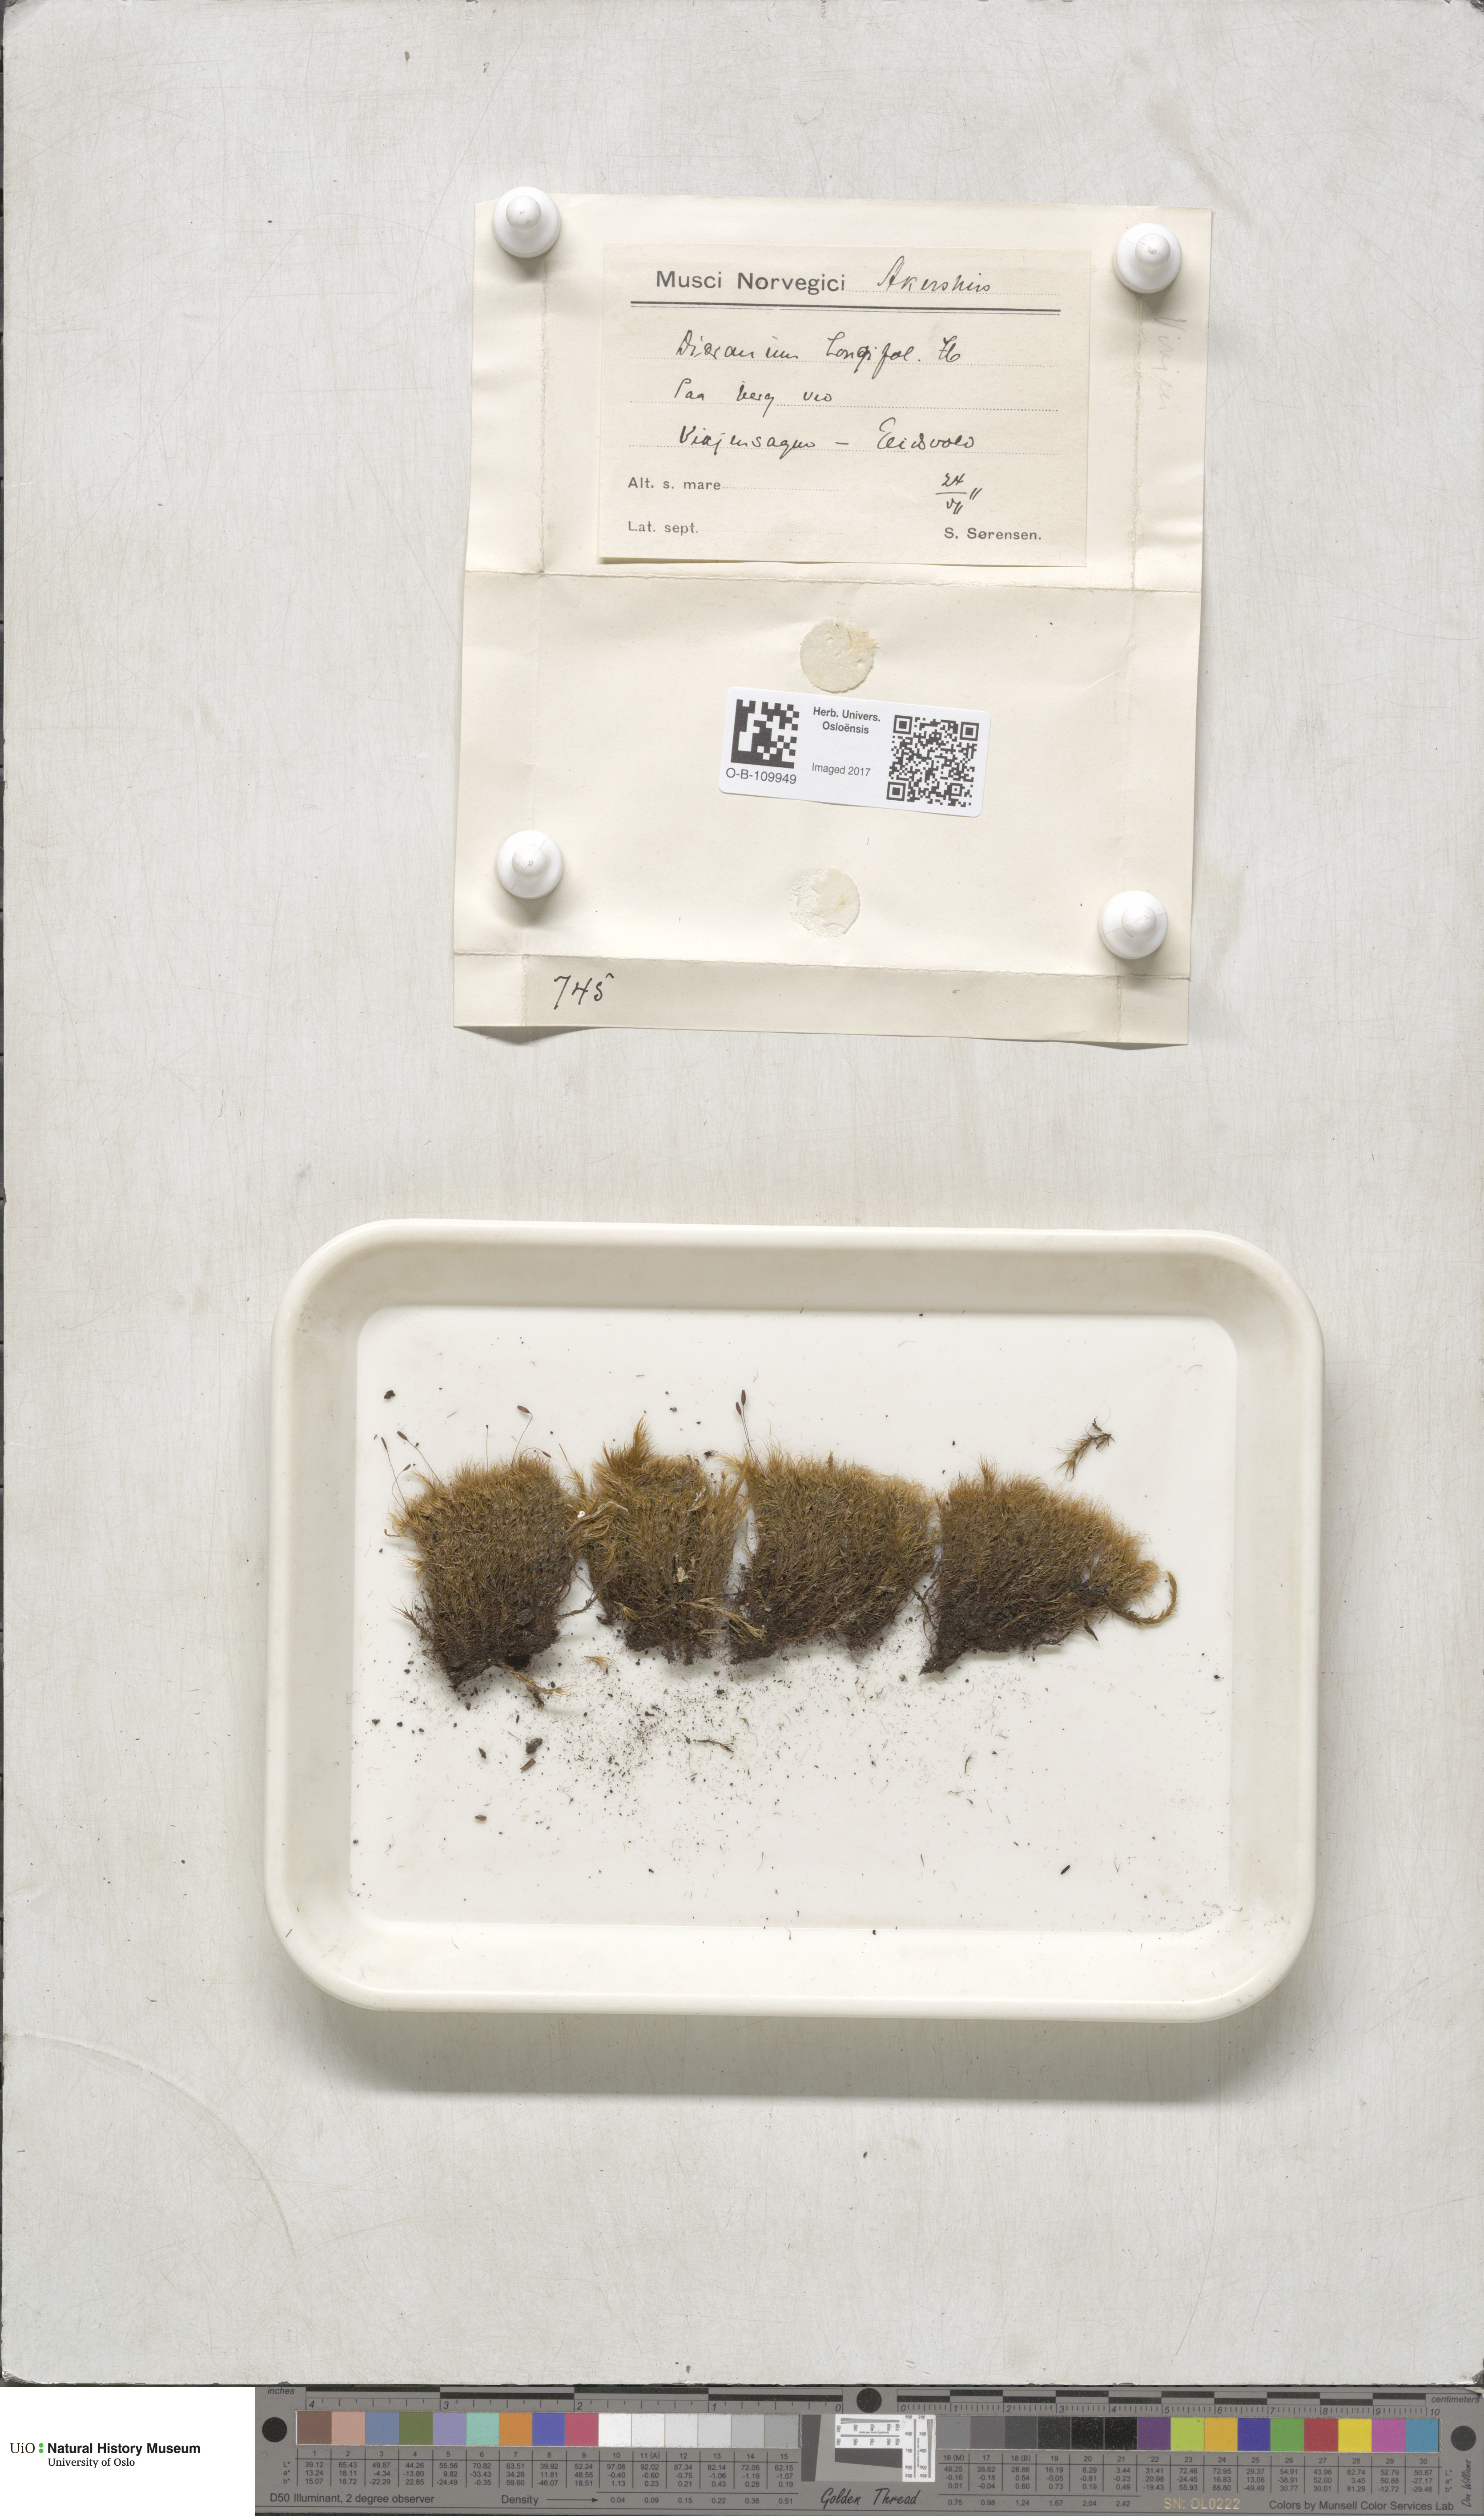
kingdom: Plantae
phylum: Bryophyta
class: Bryopsida
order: Dicranales
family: Dicranaceae
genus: Paraleucobryum
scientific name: Paraleucobryum longifolium
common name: Long-leaved fork moss
